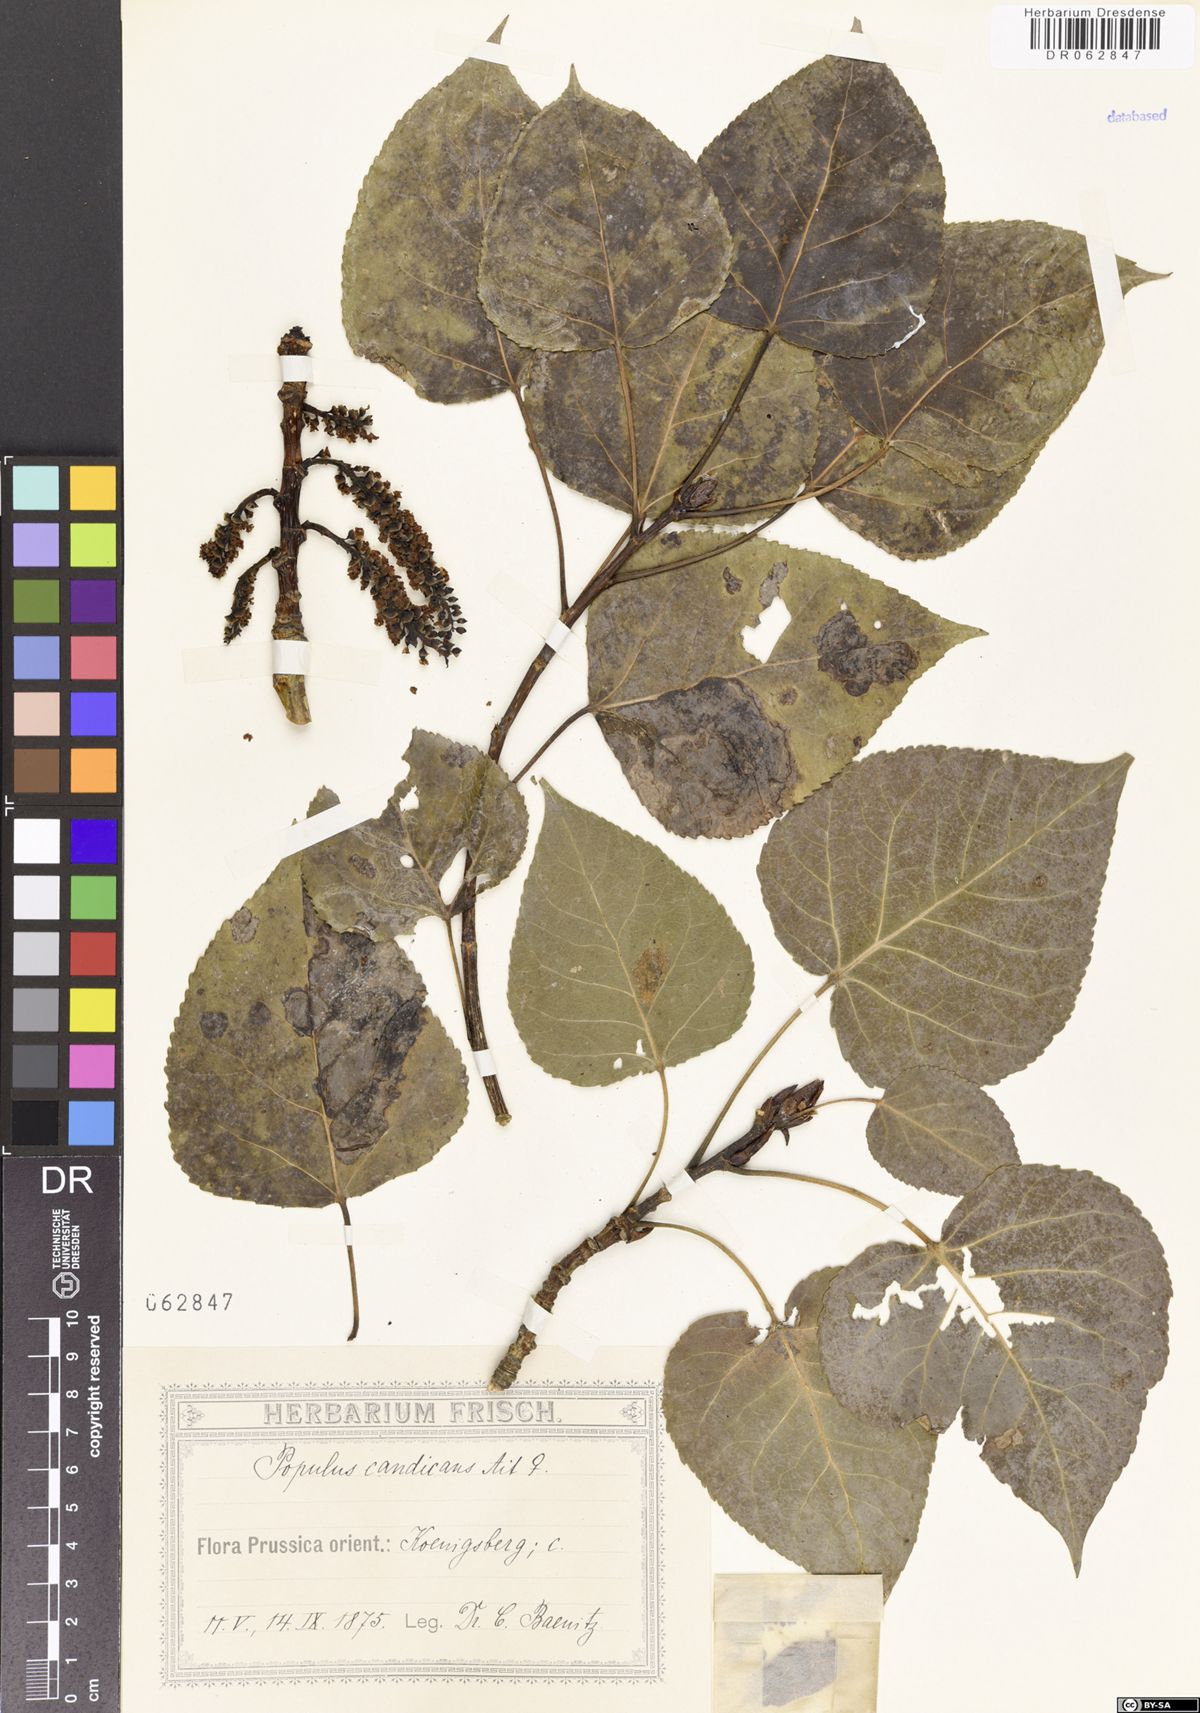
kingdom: Plantae
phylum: Tracheophyta
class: Magnoliopsida
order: Malpighiales
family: Salicaceae
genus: Populus
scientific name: Populus balsamifera
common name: Balsam poplar
